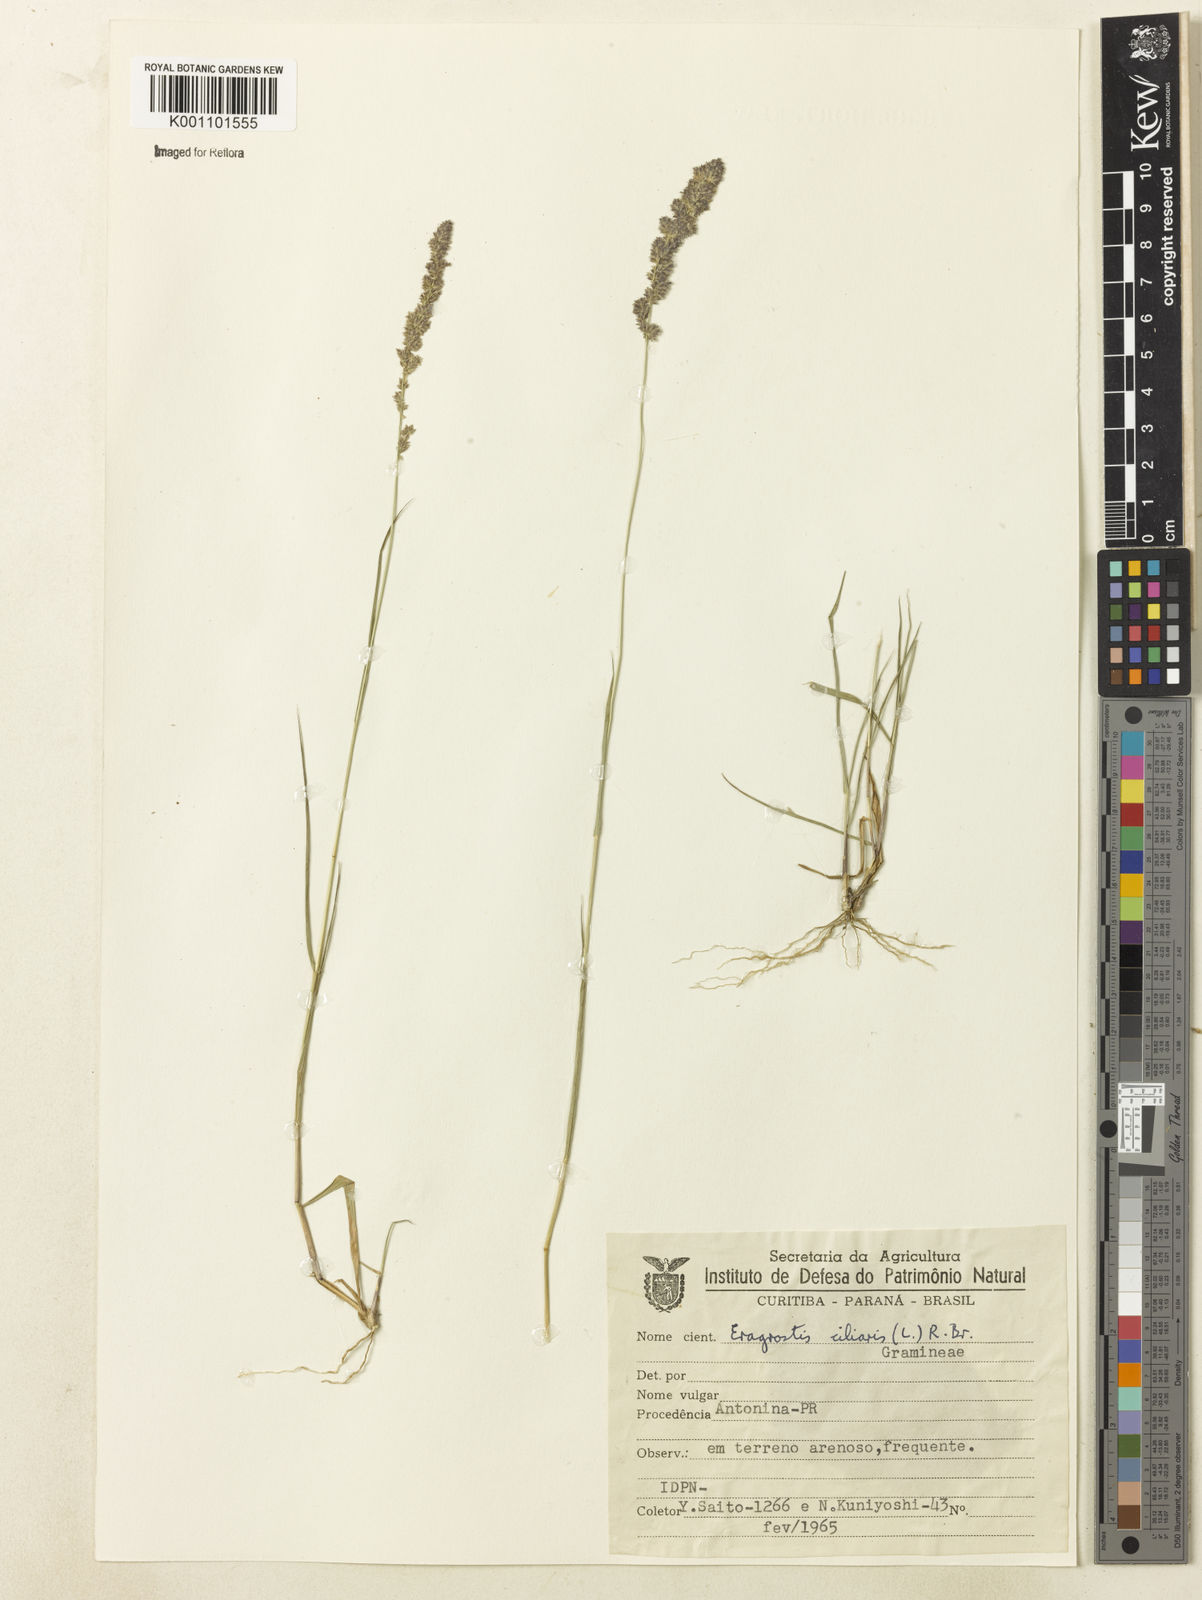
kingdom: Plantae
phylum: Tracheophyta
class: Liliopsida
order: Poales
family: Poaceae
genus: Eragrostis
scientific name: Eragrostis ciliaris
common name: Gophertail lovegrass
